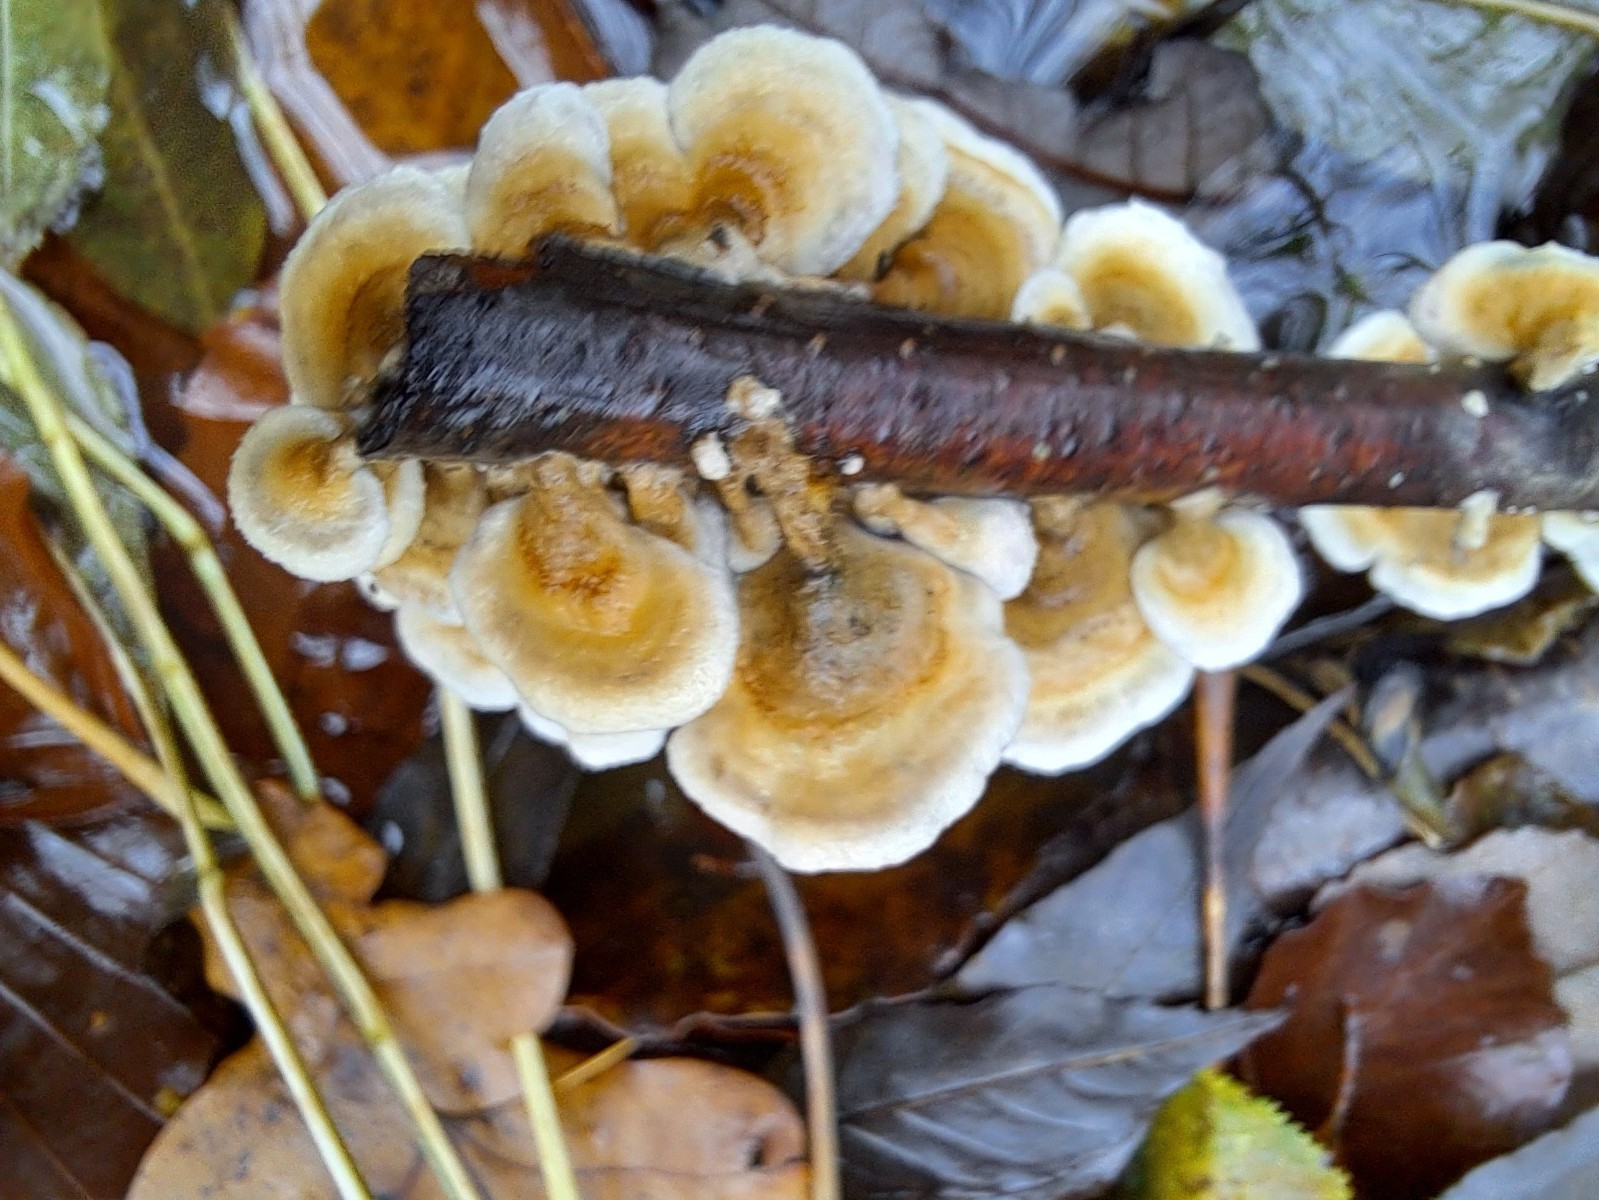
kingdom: Fungi
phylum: Basidiomycota
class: Agaricomycetes
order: Amylocorticiales
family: Amylocorticiaceae
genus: Plicaturopsis
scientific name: Plicaturopsis crispa
